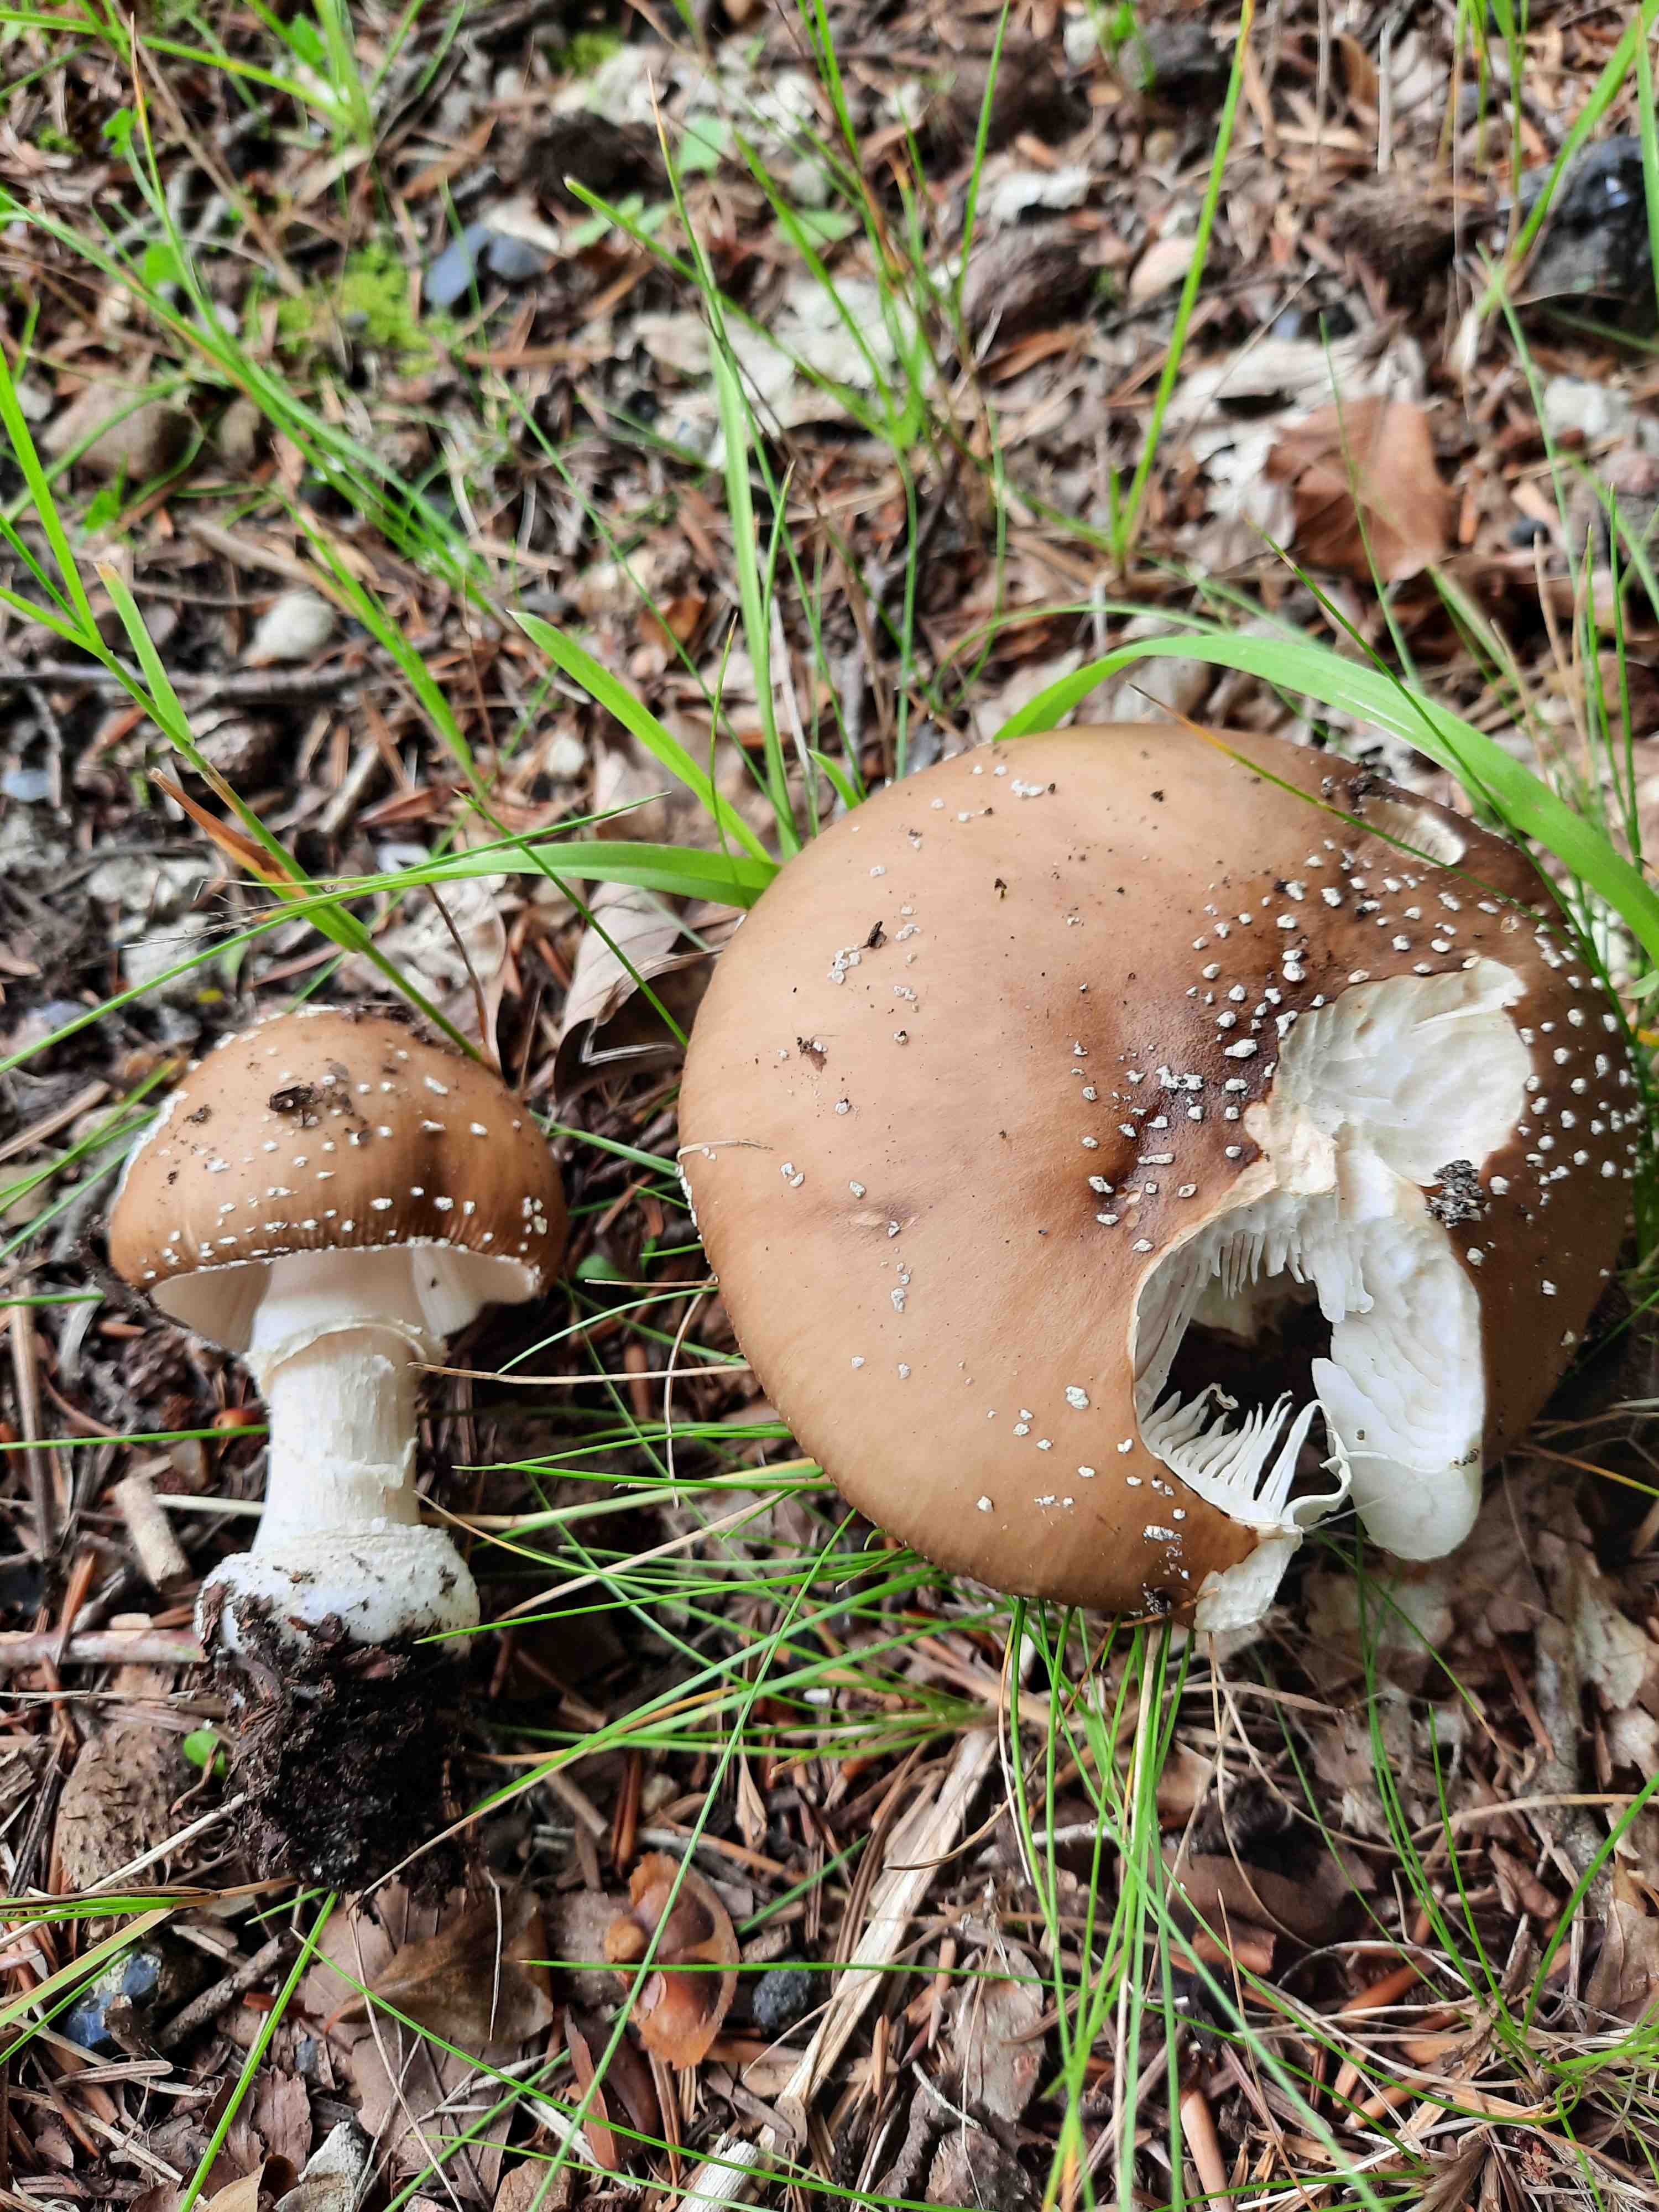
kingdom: Fungi
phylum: Basidiomycota
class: Agaricomycetes
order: Agaricales
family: Amanitaceae
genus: Amanita
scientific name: Amanita pantherina
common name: panter-fluesvamp
